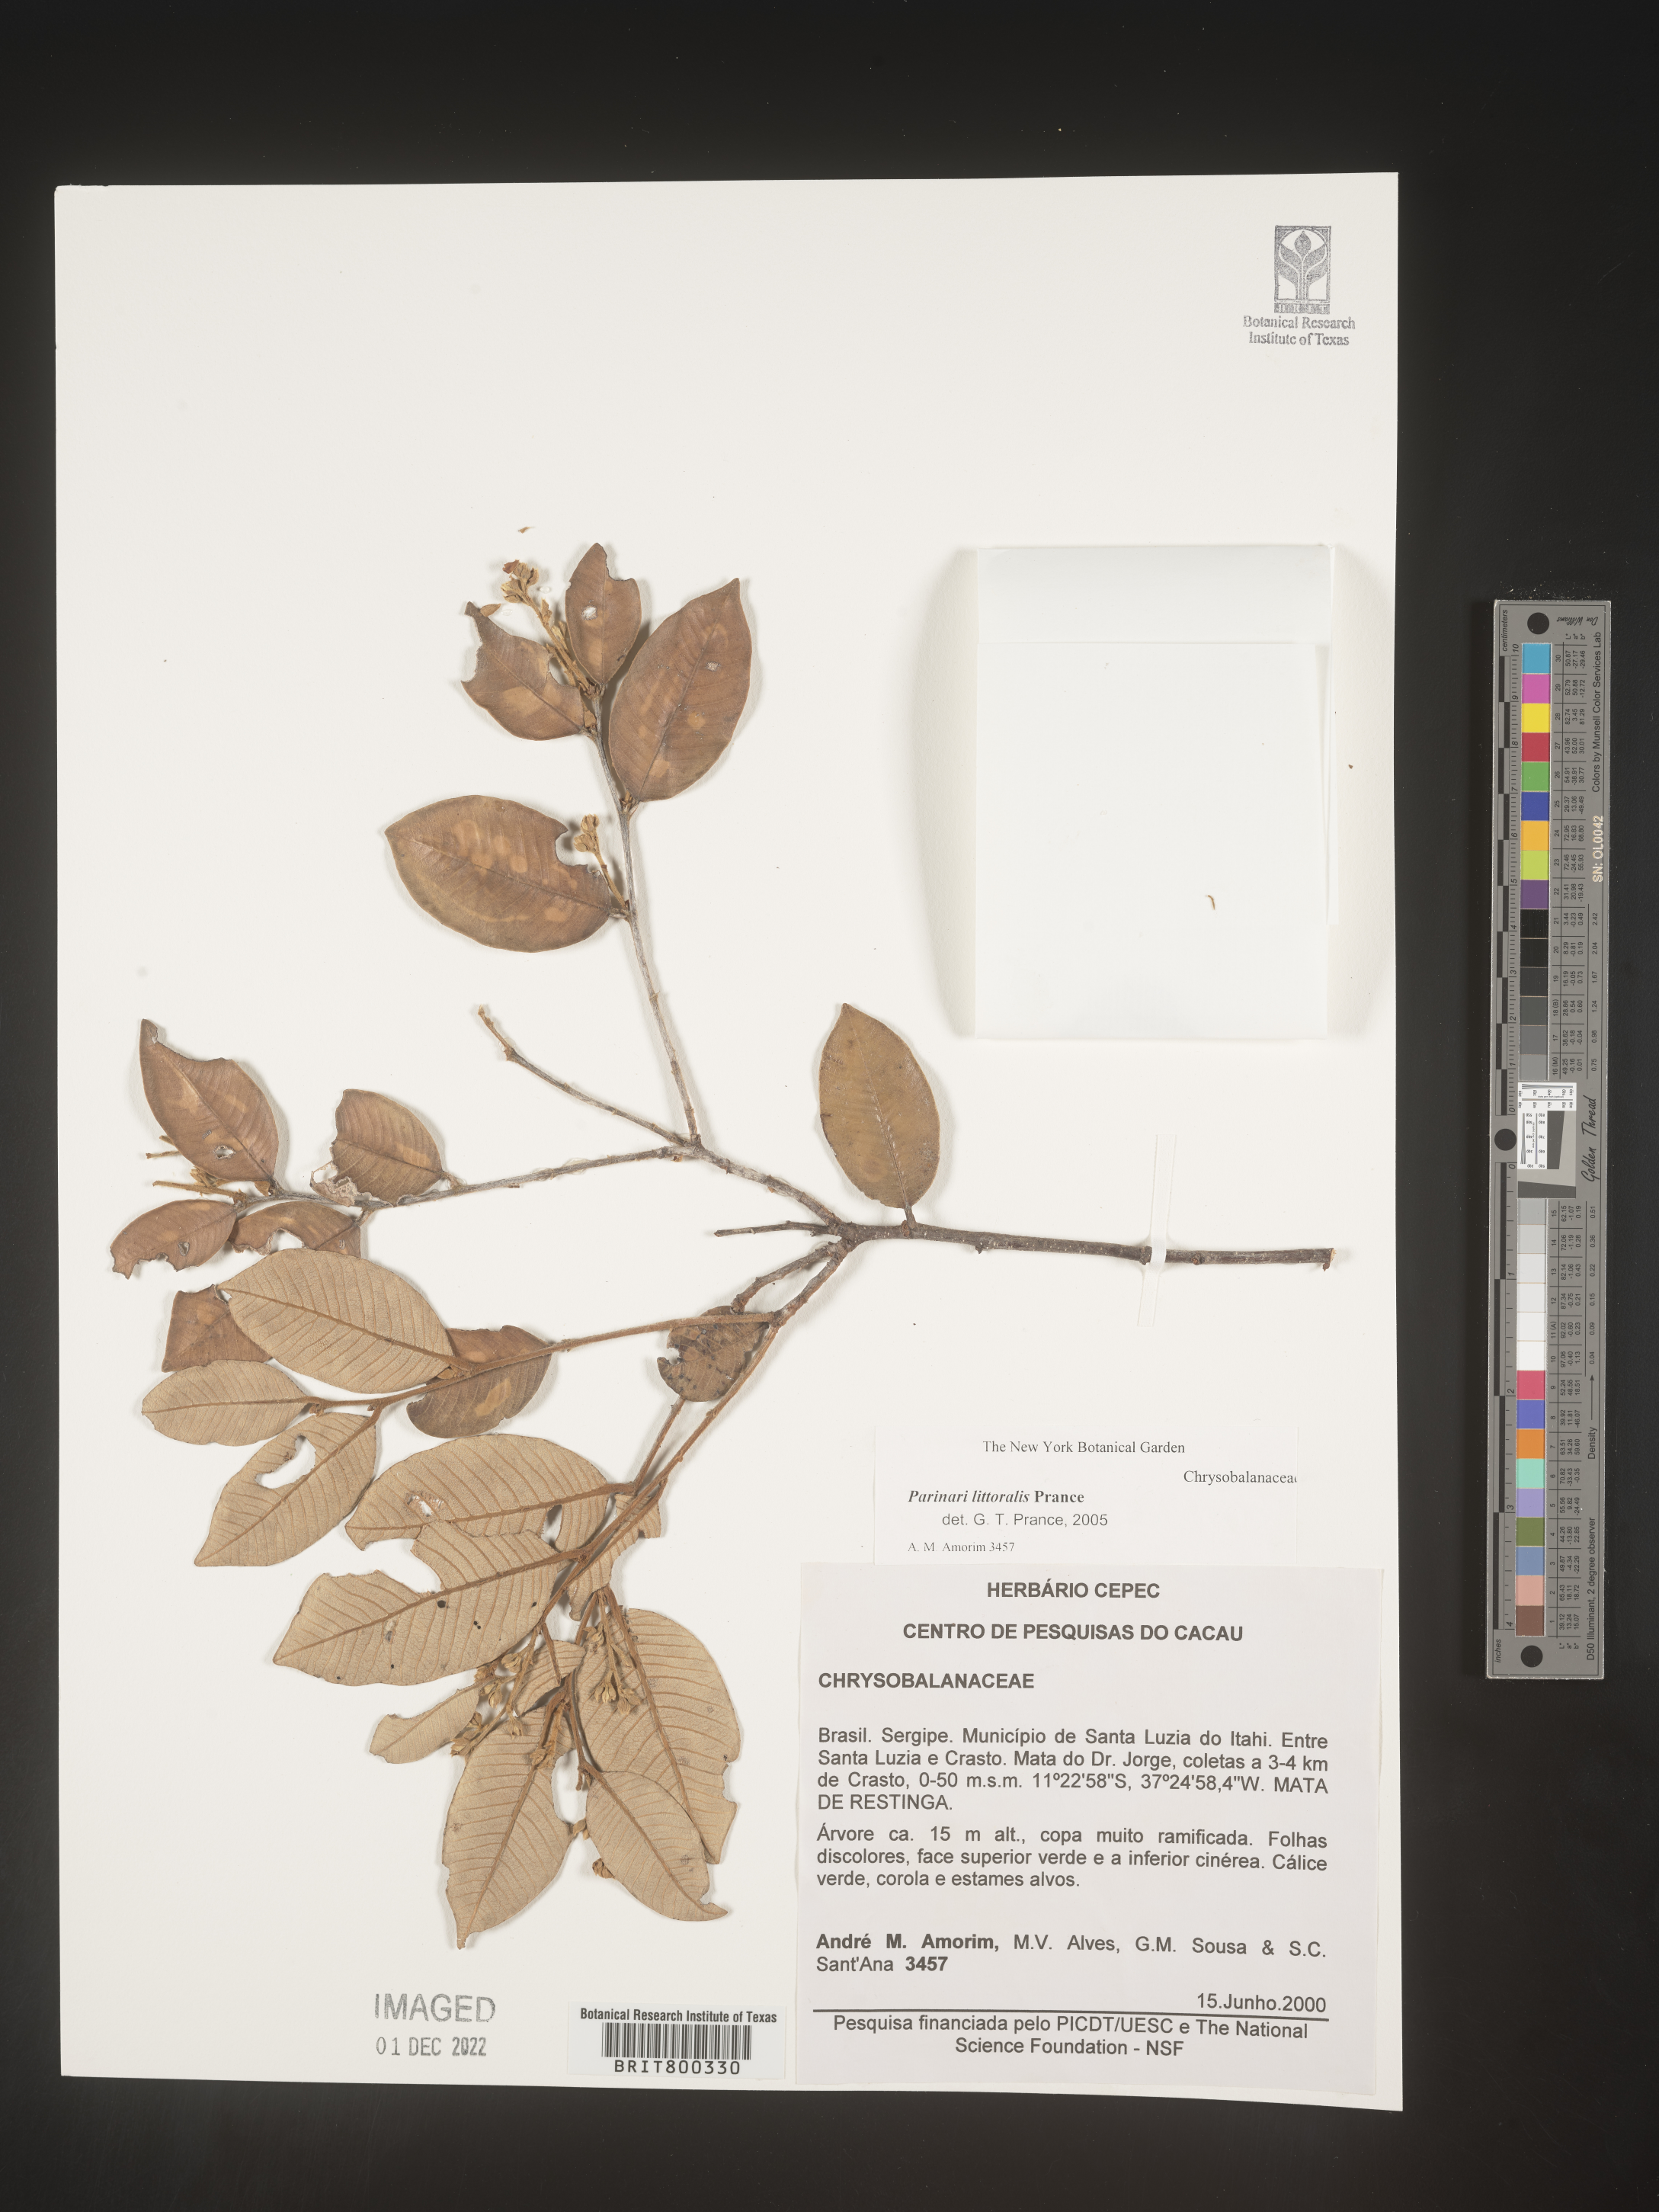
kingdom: Plantae
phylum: Tracheophyta
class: Magnoliopsida
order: Malpighiales
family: Chrysobalanaceae
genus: Parinari
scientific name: Parinari
